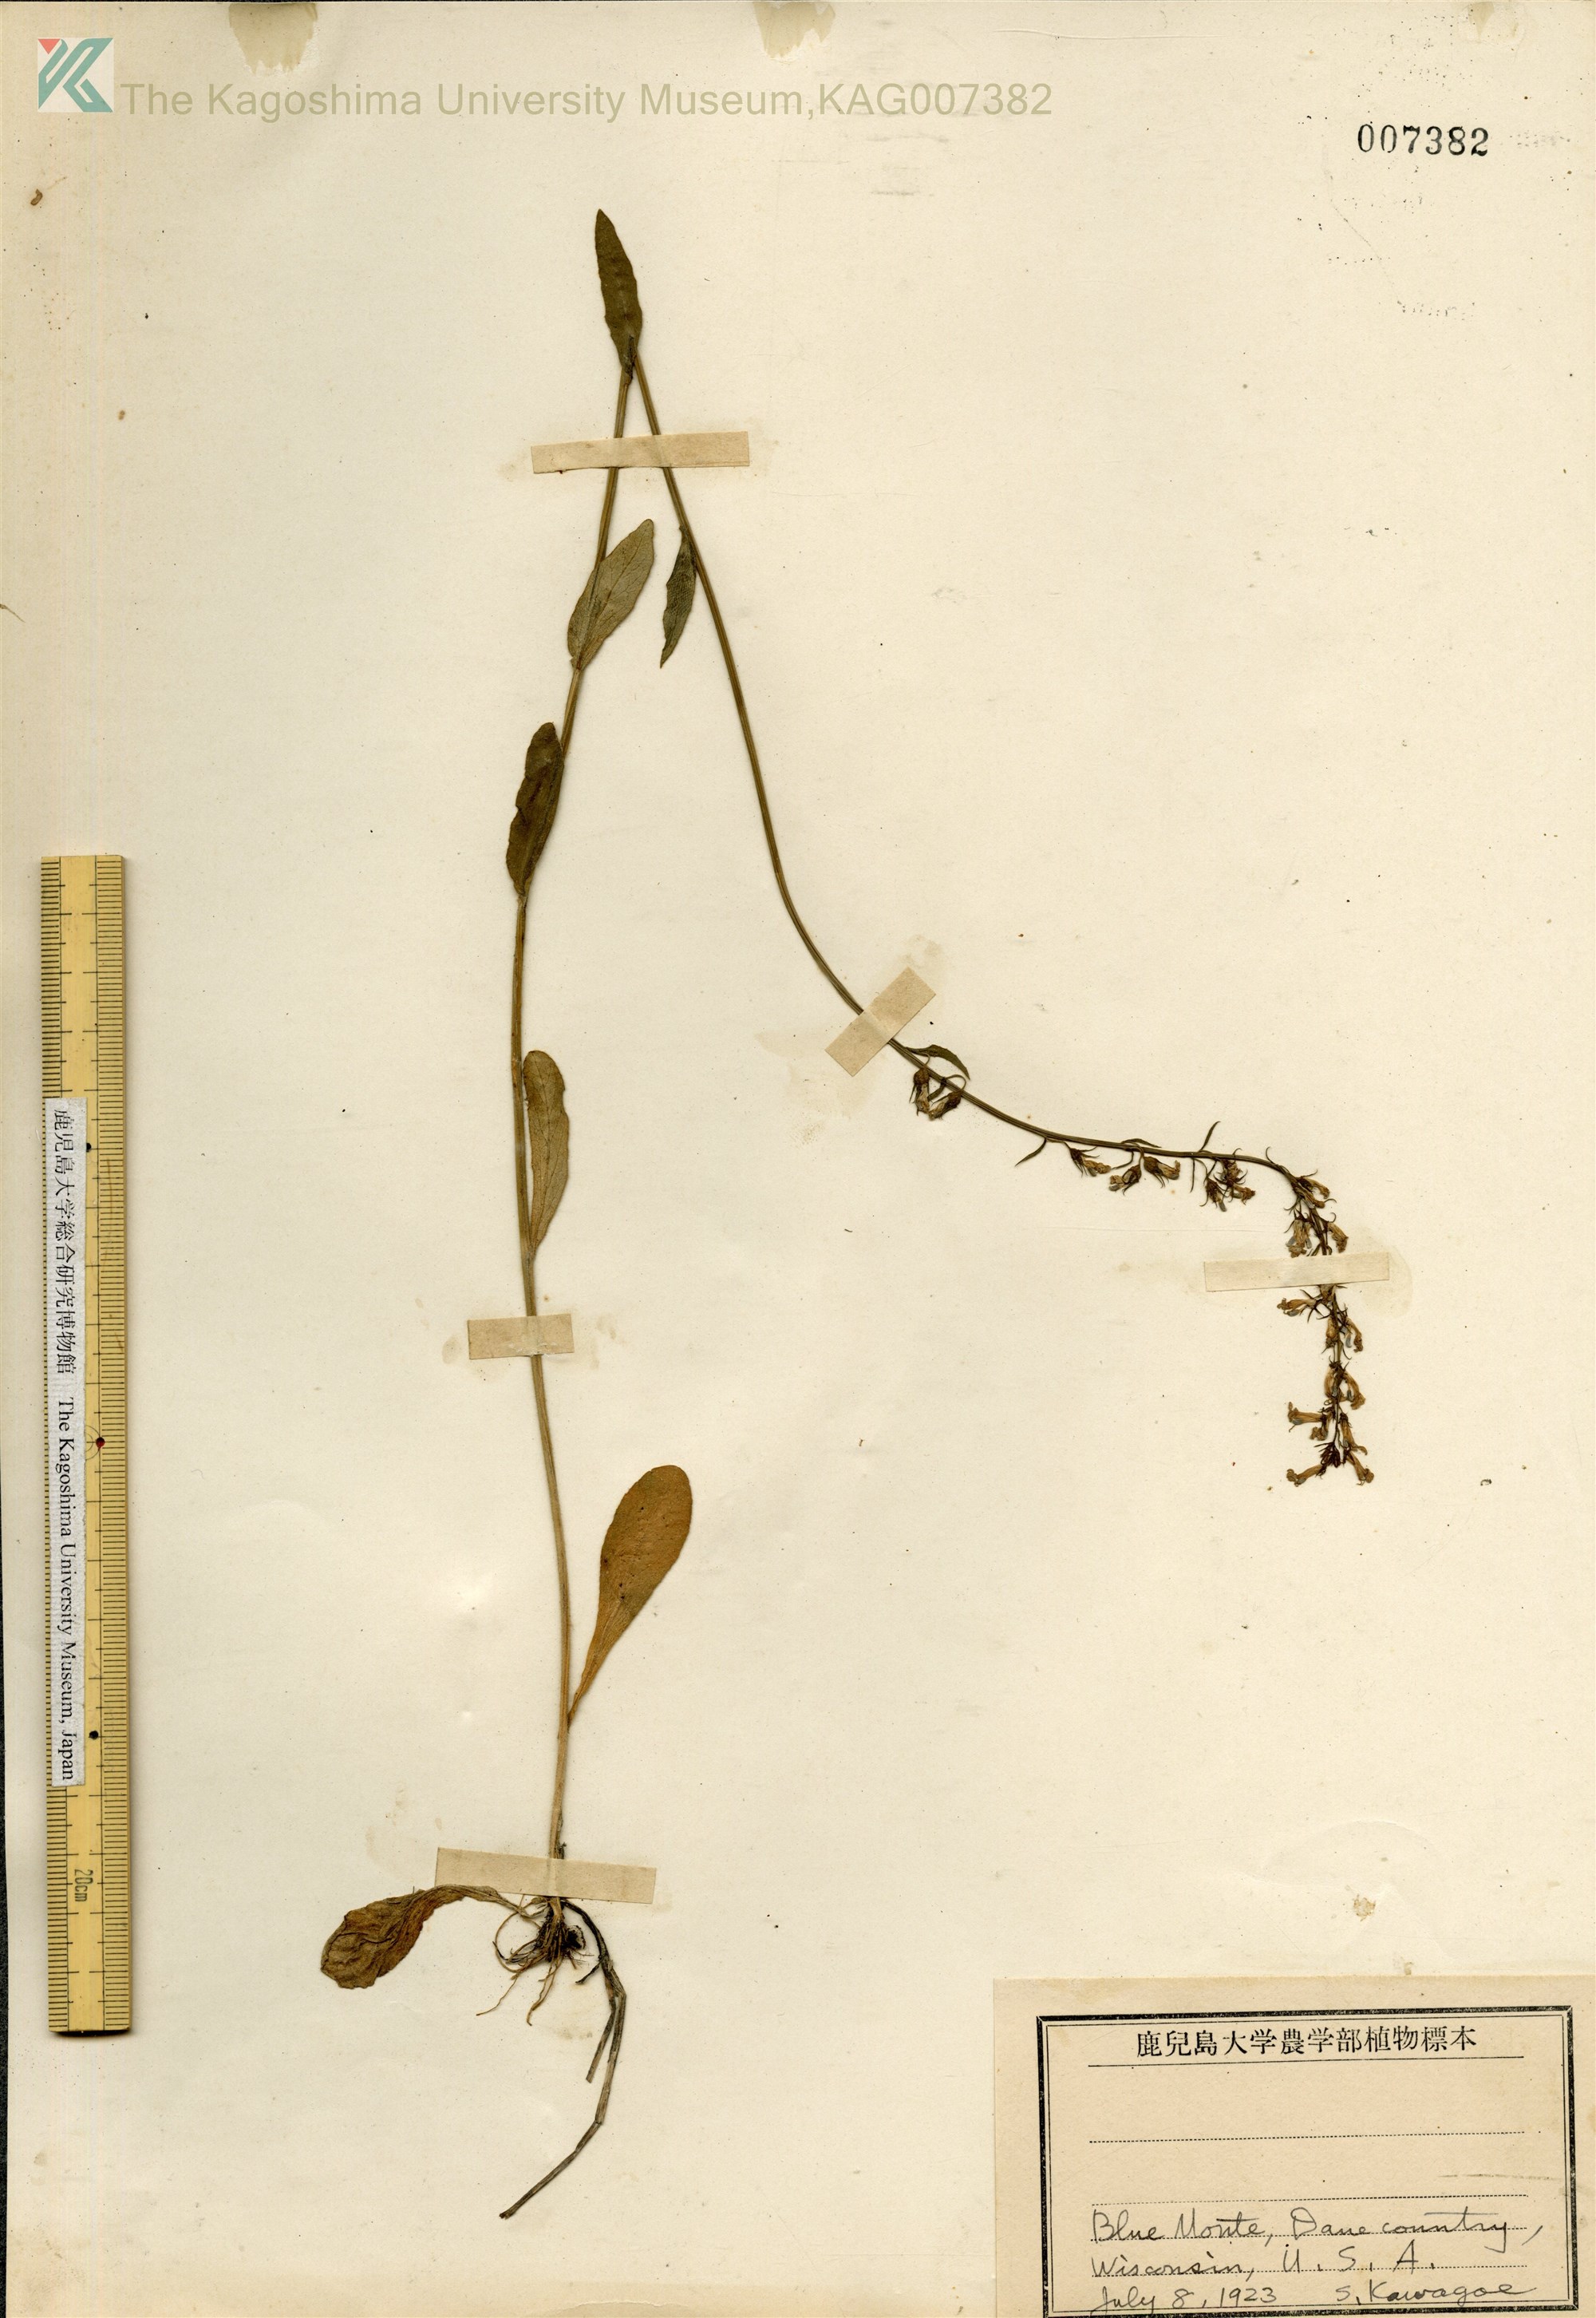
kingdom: Plantae
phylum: Tracheophyta
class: Magnoliopsida
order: Asterales
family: Campanulaceae
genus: Campanula
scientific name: Campanula
